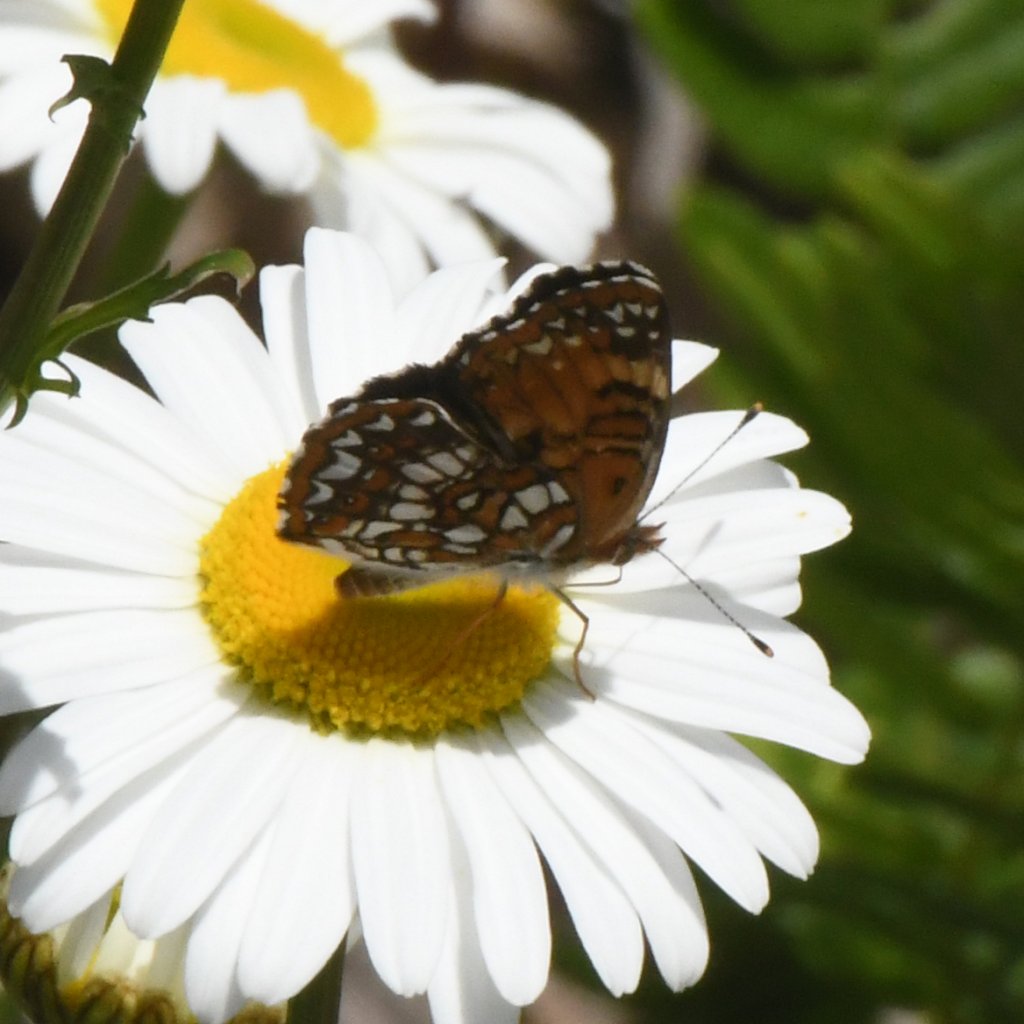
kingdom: Animalia
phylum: Arthropoda
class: Insecta
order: Lepidoptera
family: Nymphalidae
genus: Chlosyne
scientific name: Chlosyne harrisii
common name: Harris's Checkerspot
